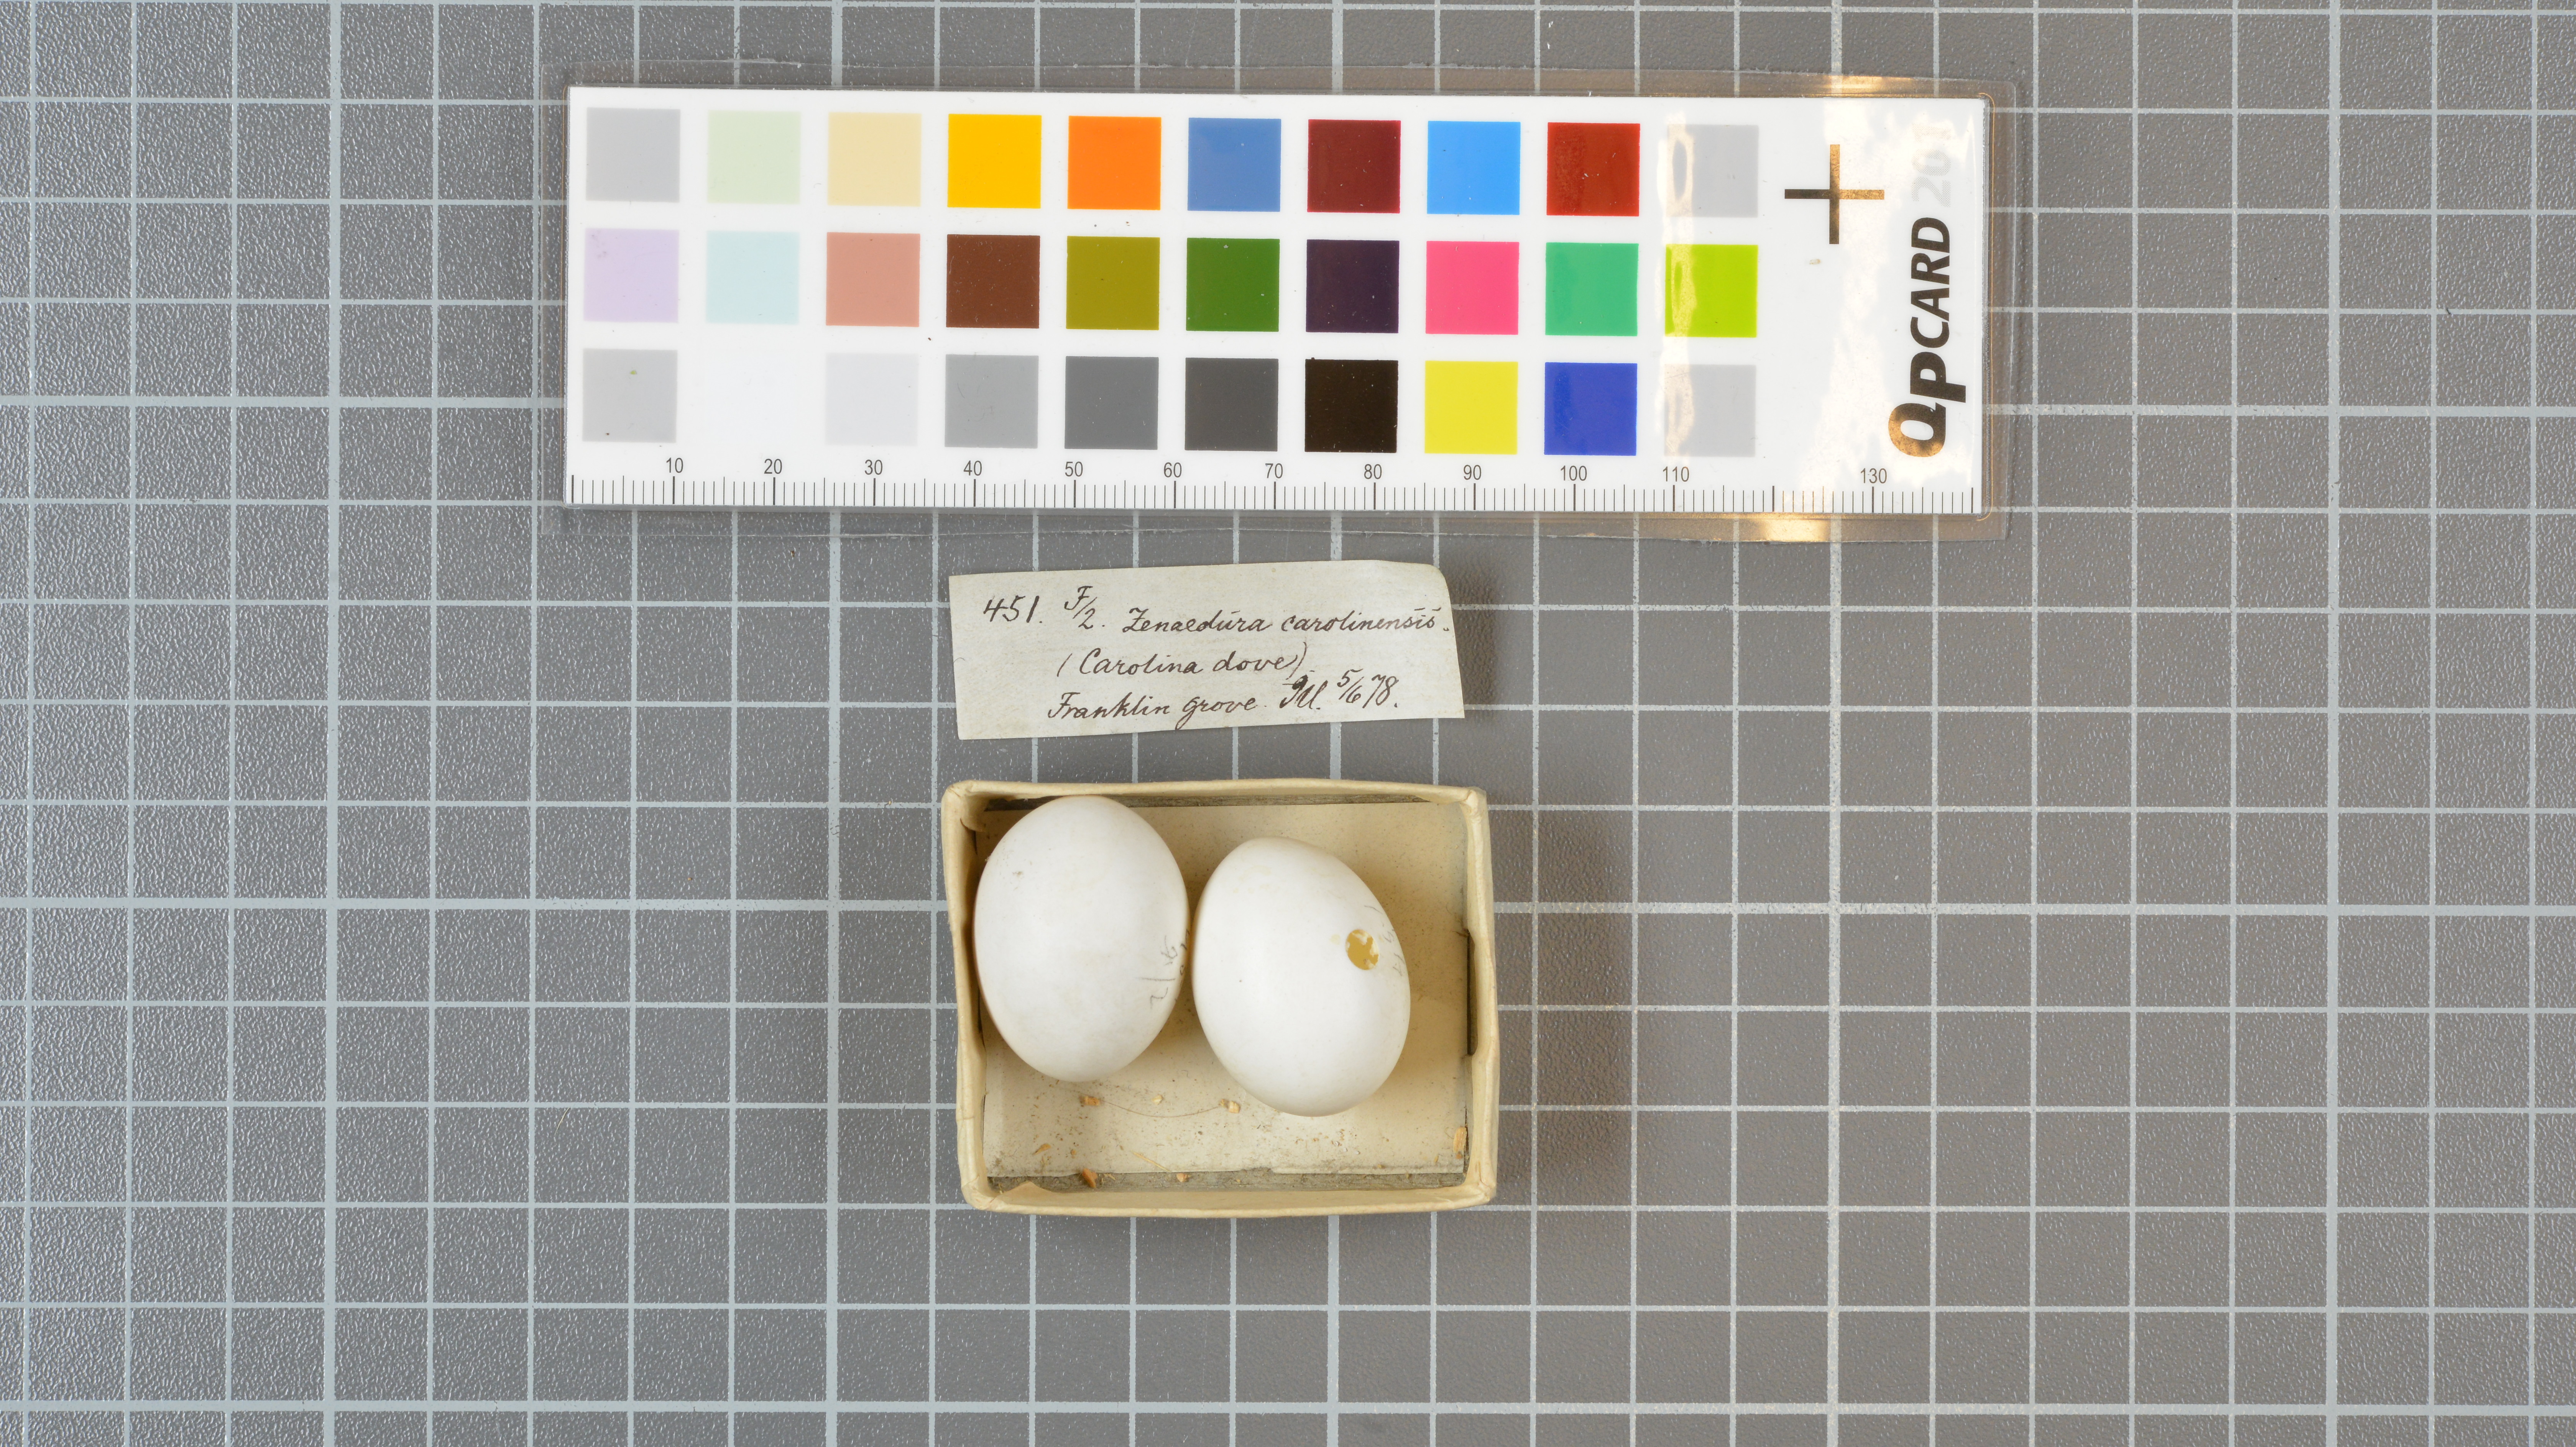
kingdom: Animalia
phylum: Chordata
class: Aves
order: Columbiformes
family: Columbidae
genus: Zenaida
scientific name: Zenaida macroura
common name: Mourning dove
